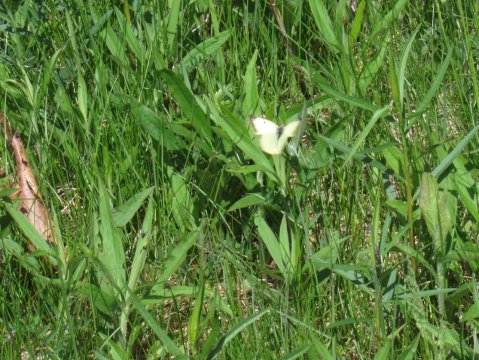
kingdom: Animalia
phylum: Arthropoda
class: Insecta
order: Lepidoptera
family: Pieridae
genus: Colias
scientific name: Colias philodice
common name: Clouded Sulphur
